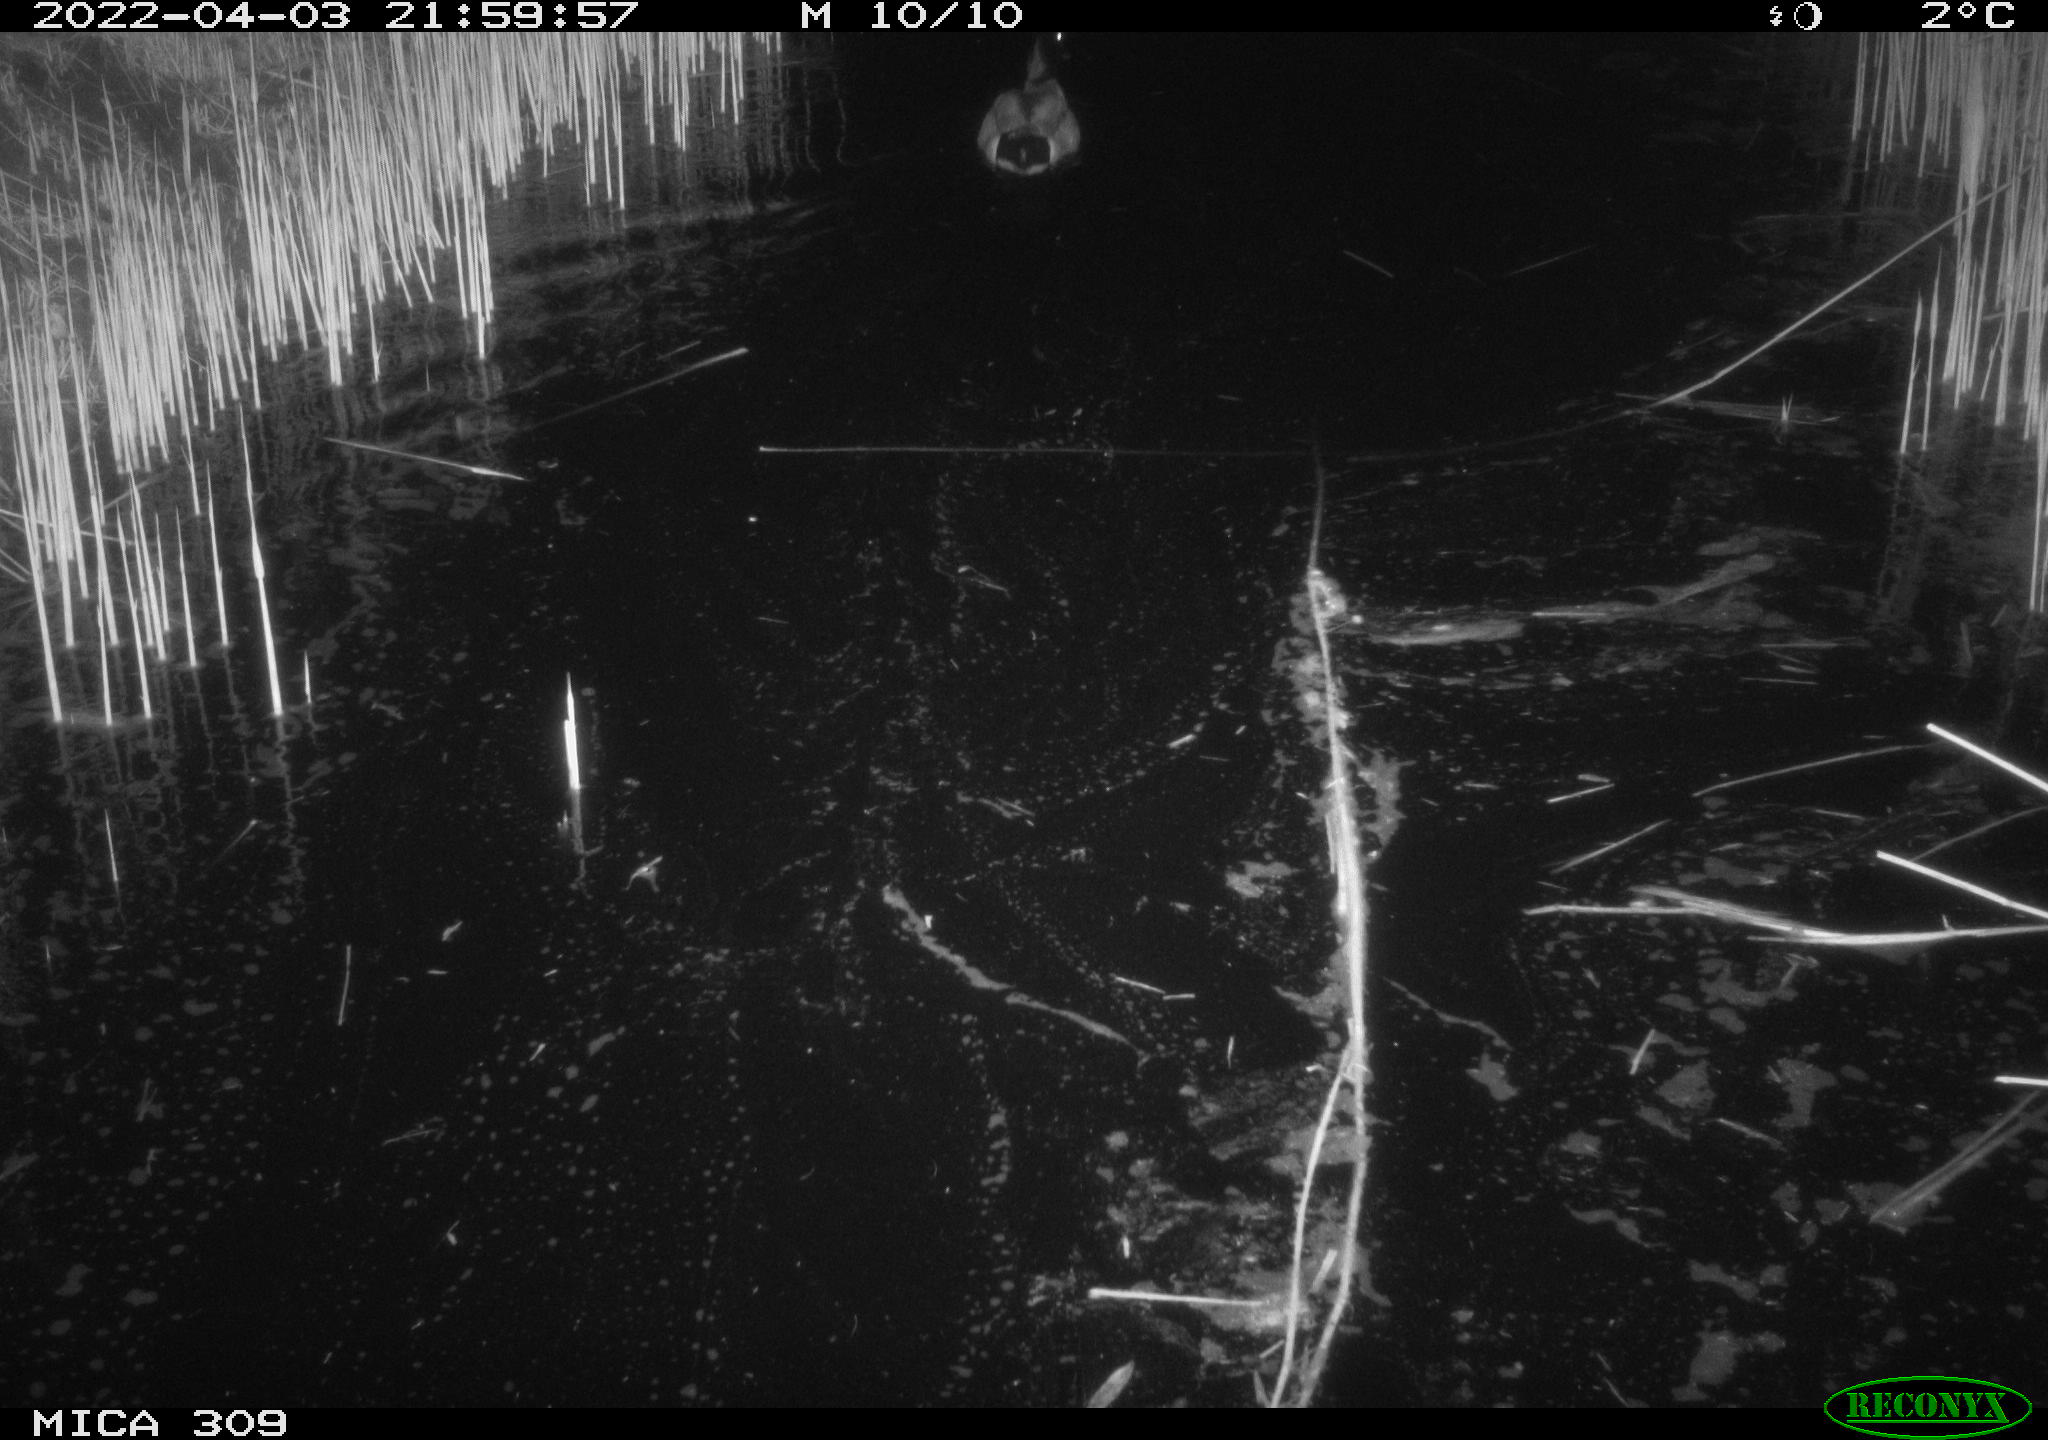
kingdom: Animalia
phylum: Chordata
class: Aves
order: Anseriformes
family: Anatidae
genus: Anas
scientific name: Anas platyrhynchos
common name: Mallard
